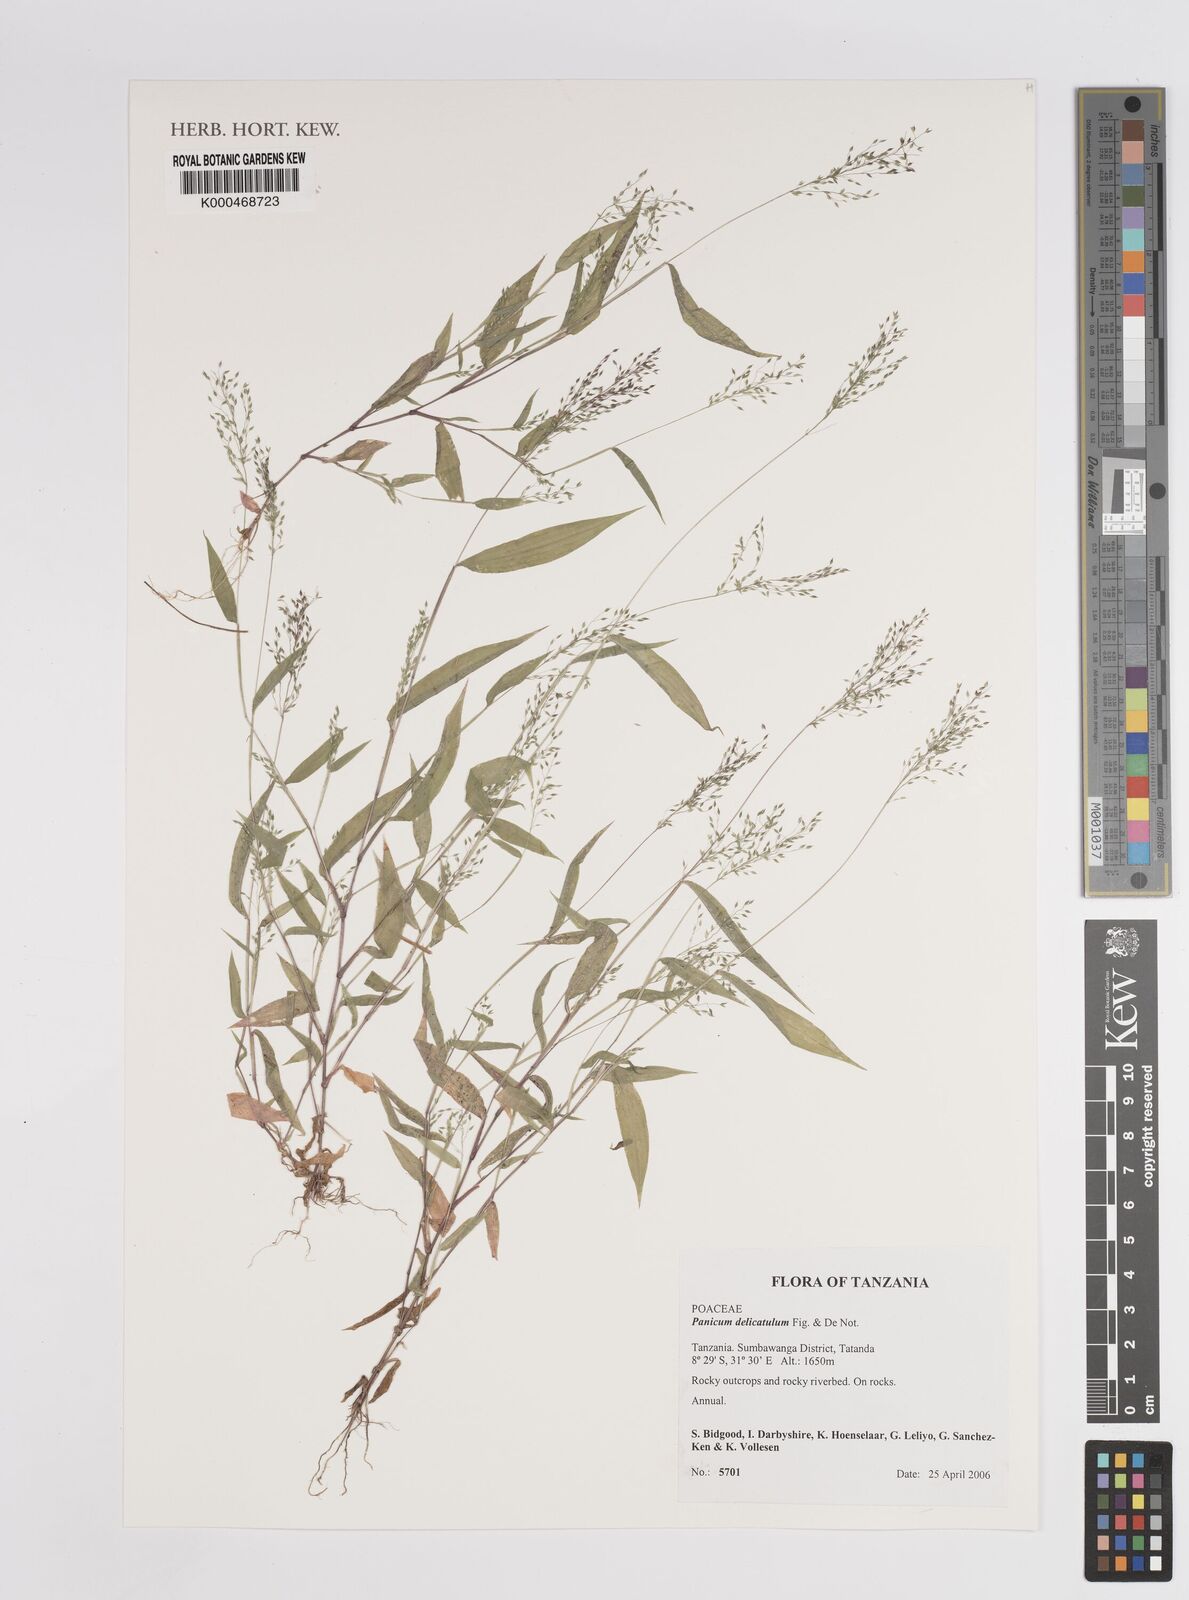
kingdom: Plantae
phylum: Tracheophyta
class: Liliopsida
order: Poales
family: Poaceae
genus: Panicum
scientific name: Panicum delicatulum
